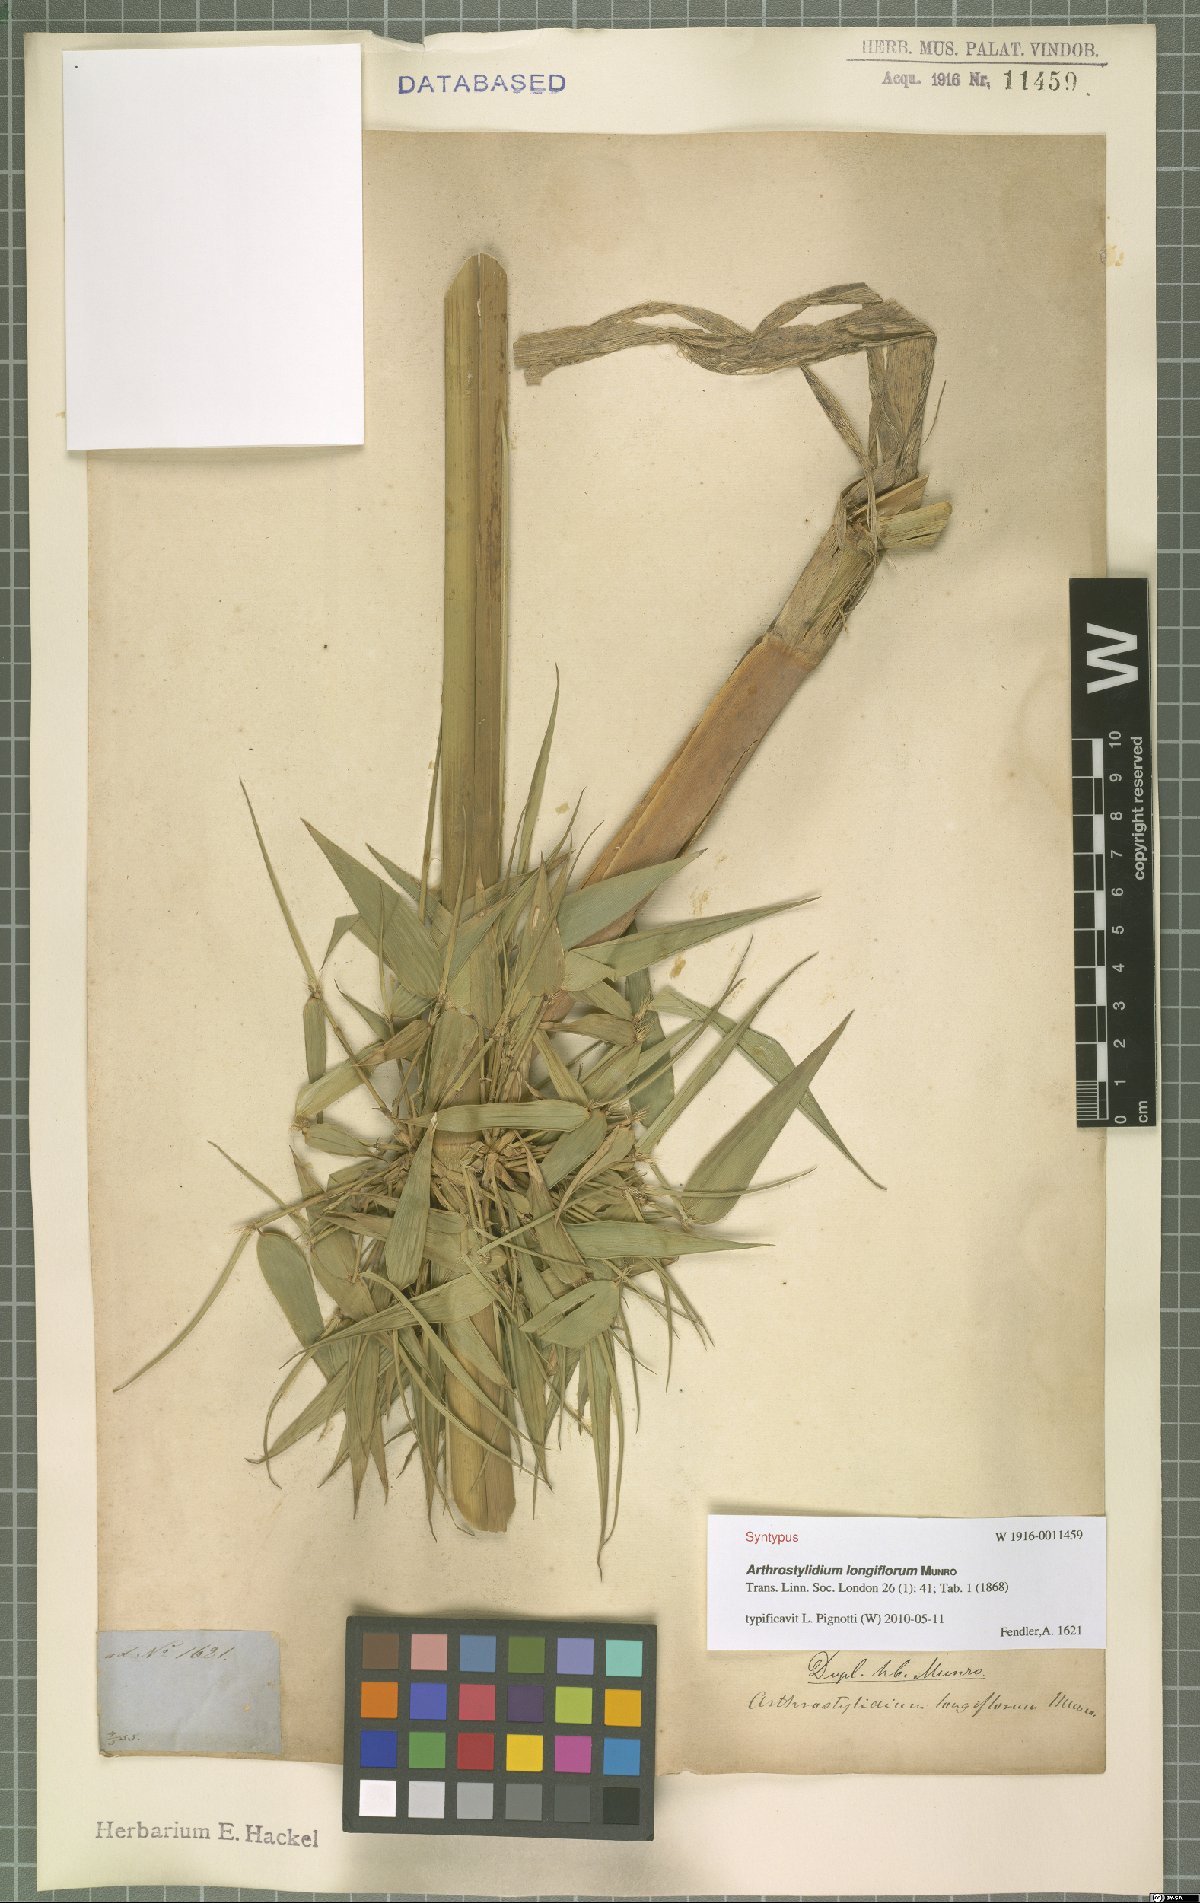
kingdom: Plantae
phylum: Tracheophyta
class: Liliopsida
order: Poales
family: Poaceae
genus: Arthrostylidium
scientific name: Arthrostylidium longiflorum
